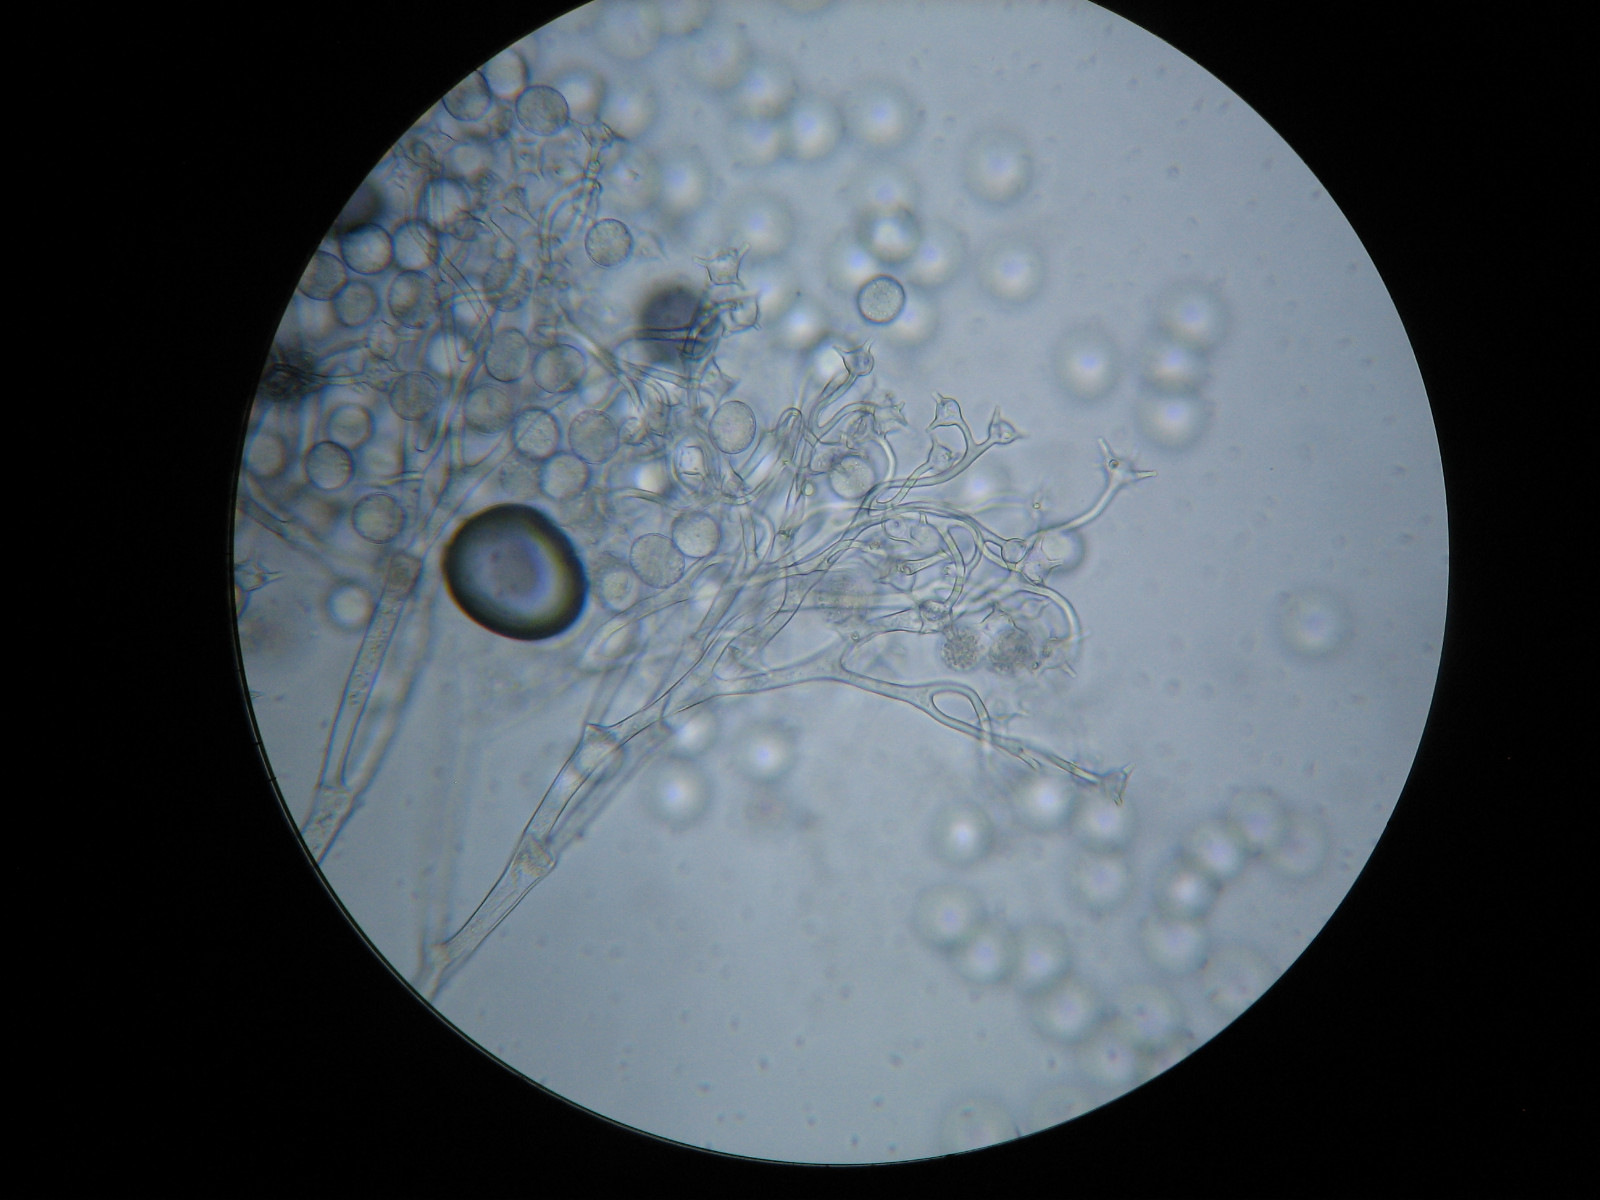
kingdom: Chromista
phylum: Oomycota
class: Peronosporea
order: Peronosporales
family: Peronosporaceae
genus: Bremia
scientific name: Bremia lactucae
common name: Lettuce downy mildew
